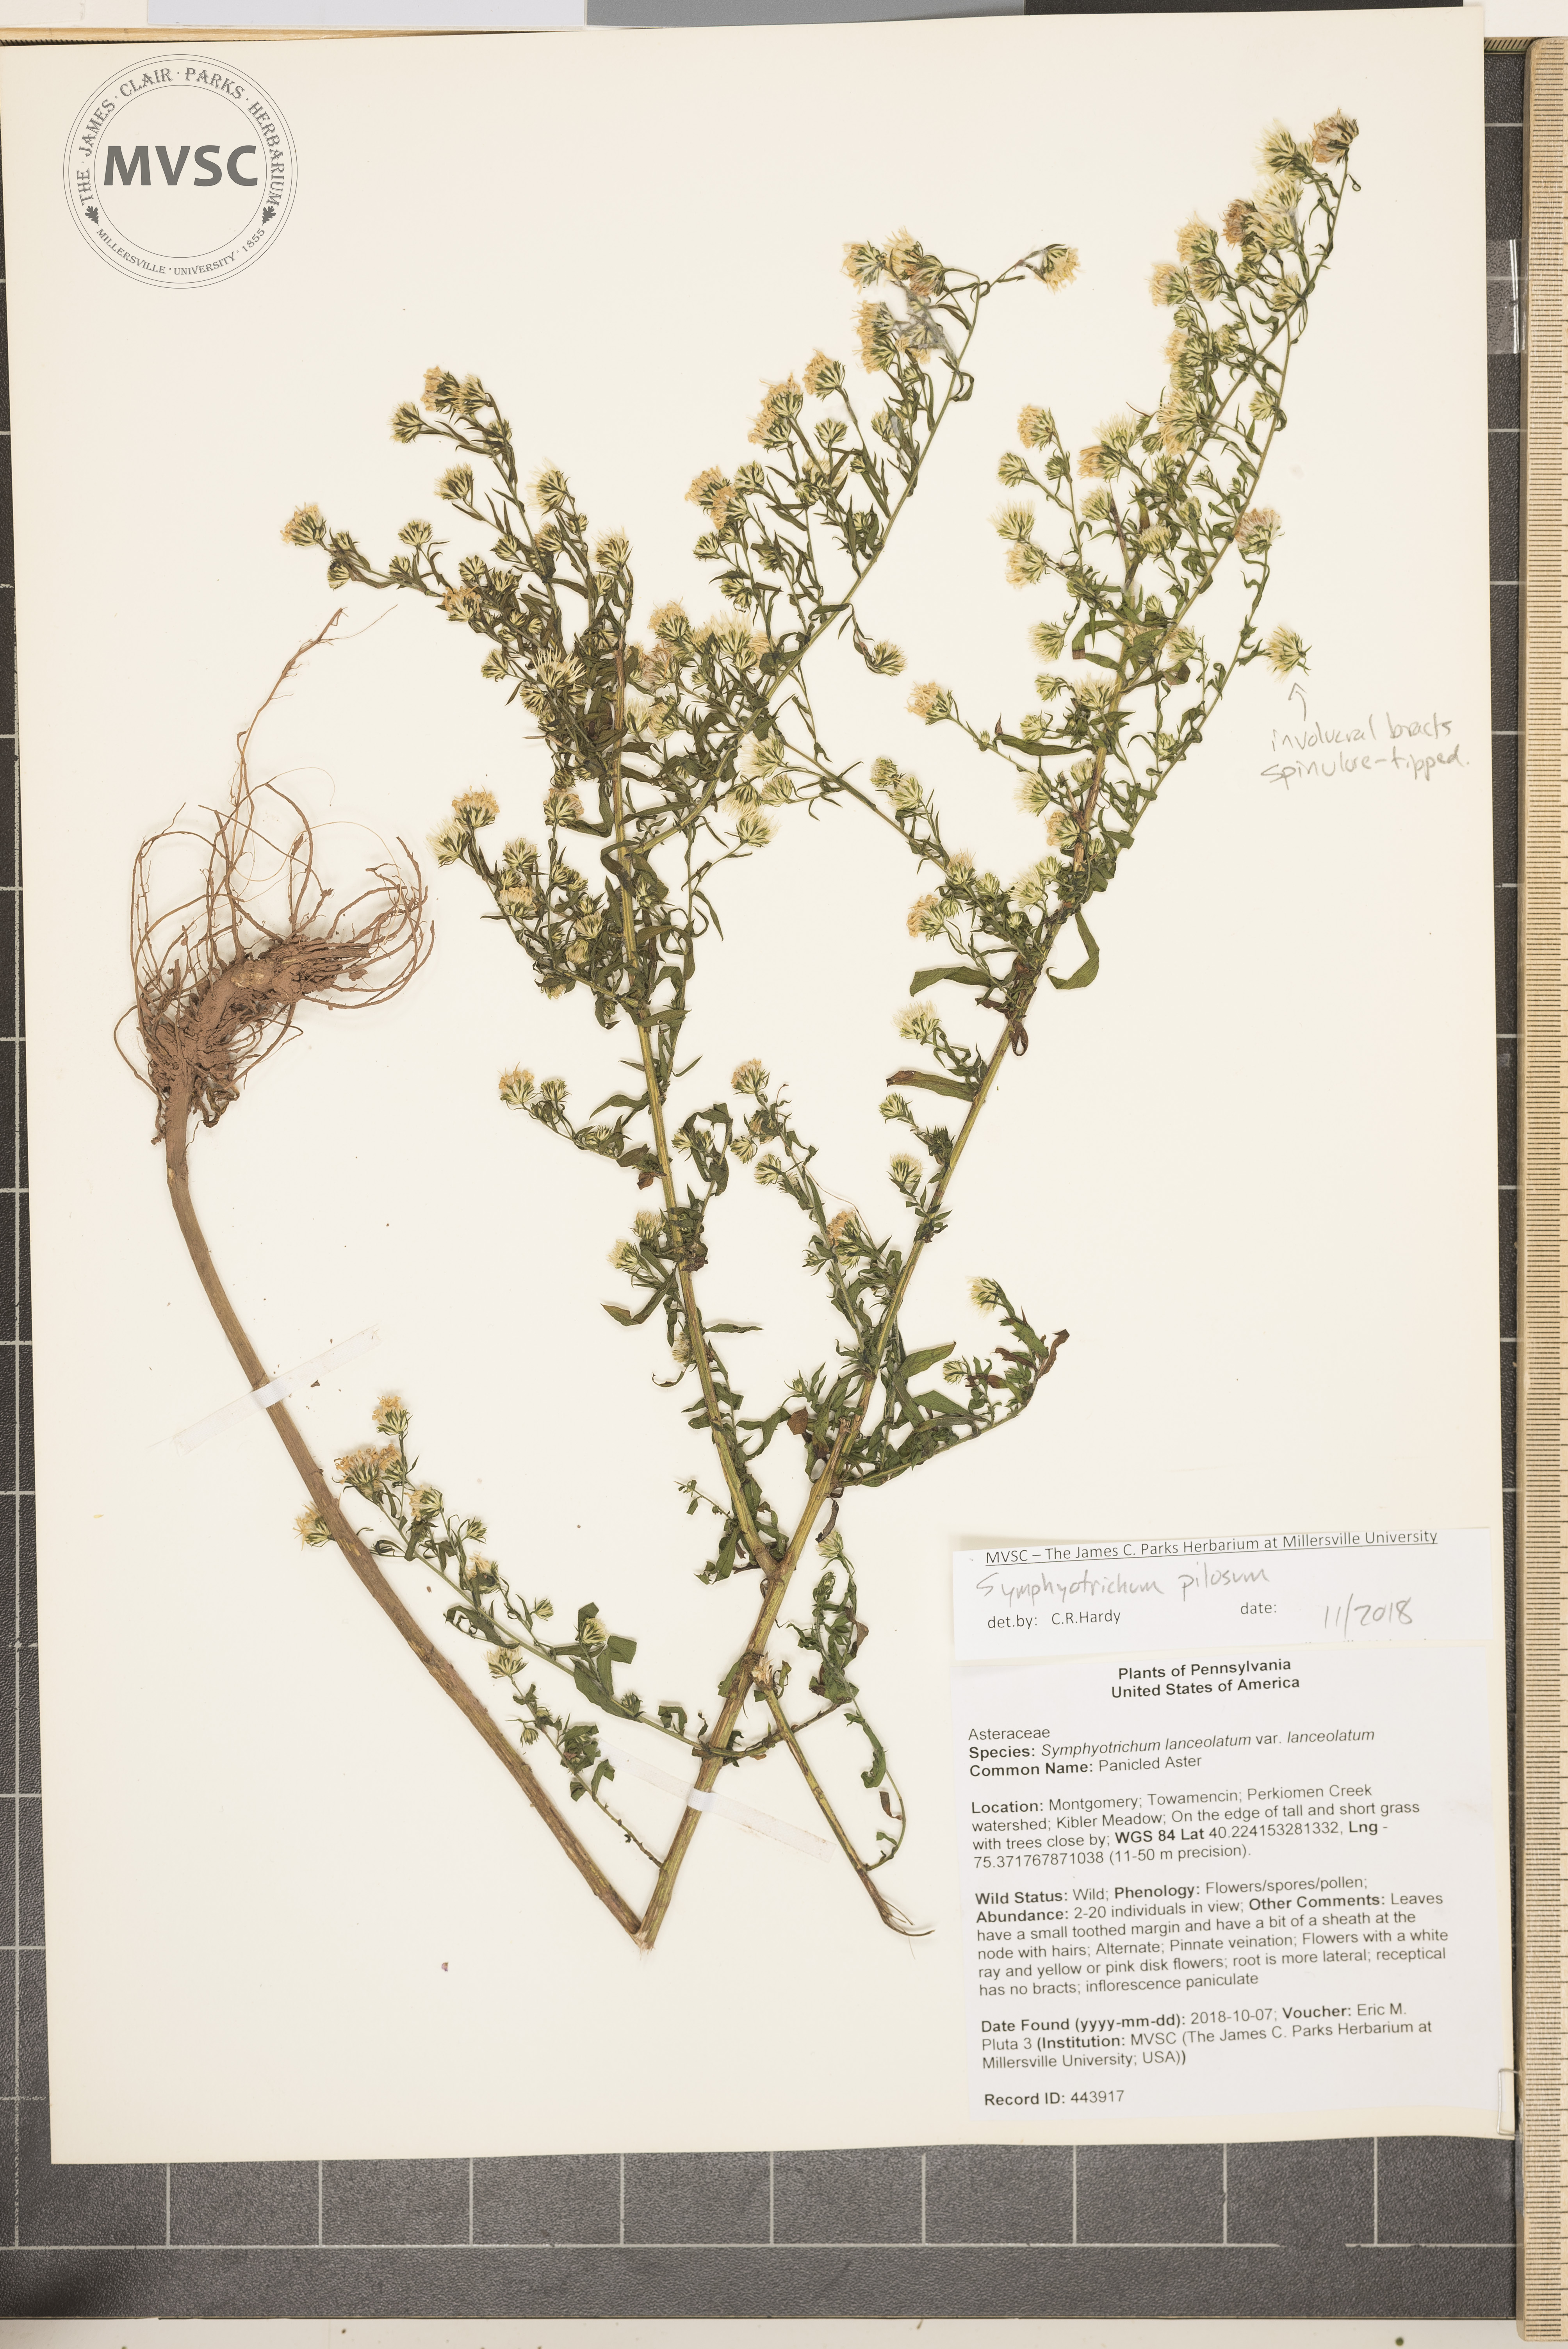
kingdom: Plantae
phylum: Tracheophyta
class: Magnoliopsida
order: Asterales
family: Asteraceae
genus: Symphyotrichum
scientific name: Symphyotrichum pilosum
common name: Aster
